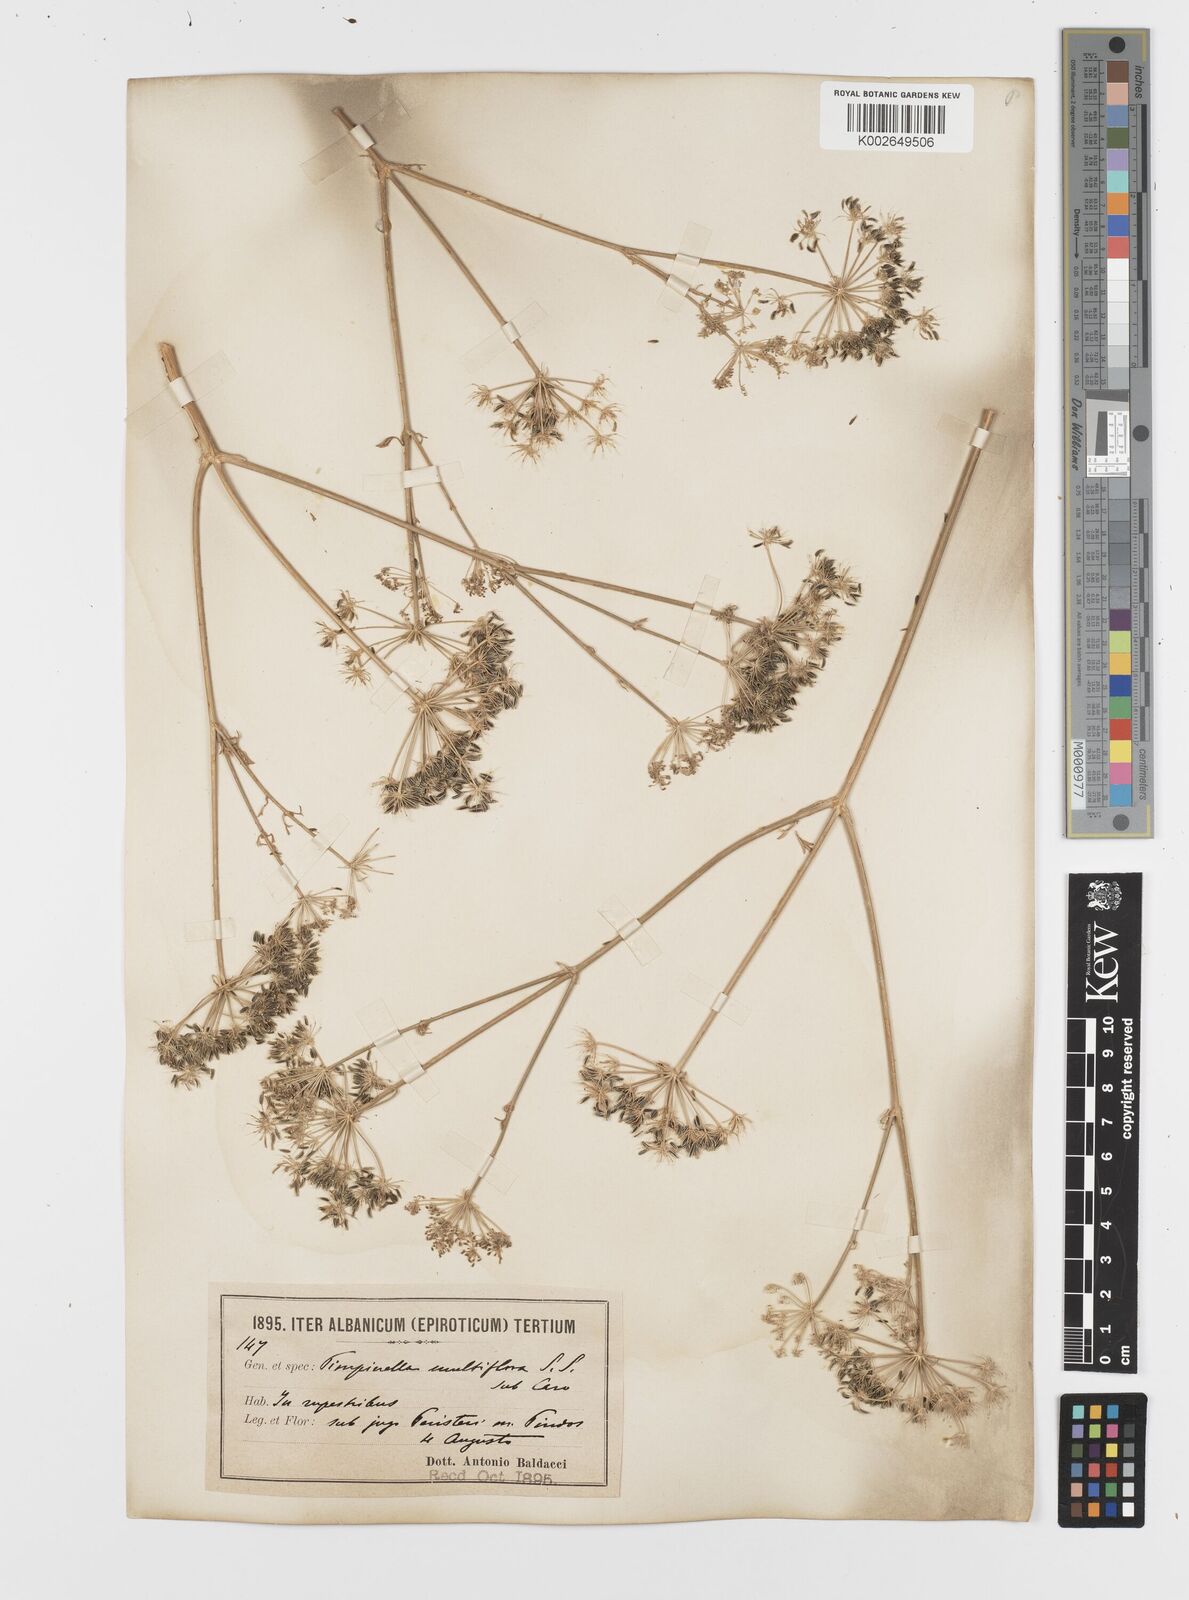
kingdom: Plantae
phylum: Tracheophyta
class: Magnoliopsida
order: Apiales
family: Apiaceae
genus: Hellenocarum
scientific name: Hellenocarum multiflorum
